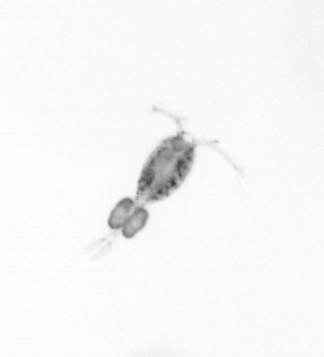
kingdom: Animalia
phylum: Arthropoda
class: Copepoda
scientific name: Copepoda
